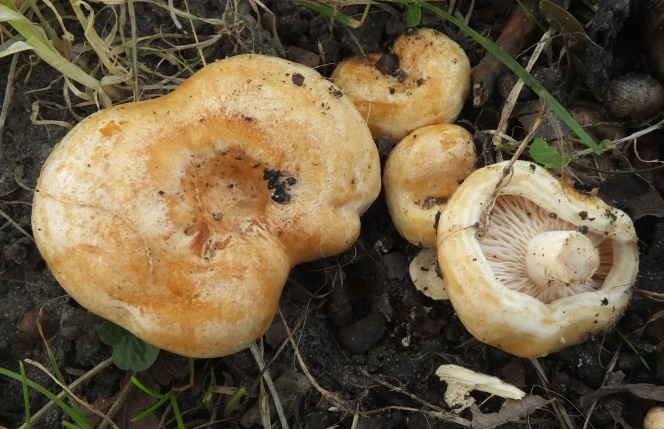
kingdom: Fungi
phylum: Basidiomycota
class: Agaricomycetes
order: Russulales
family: Russulaceae
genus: Lactarius
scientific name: Lactarius acerrimus
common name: brændende mælkehat
